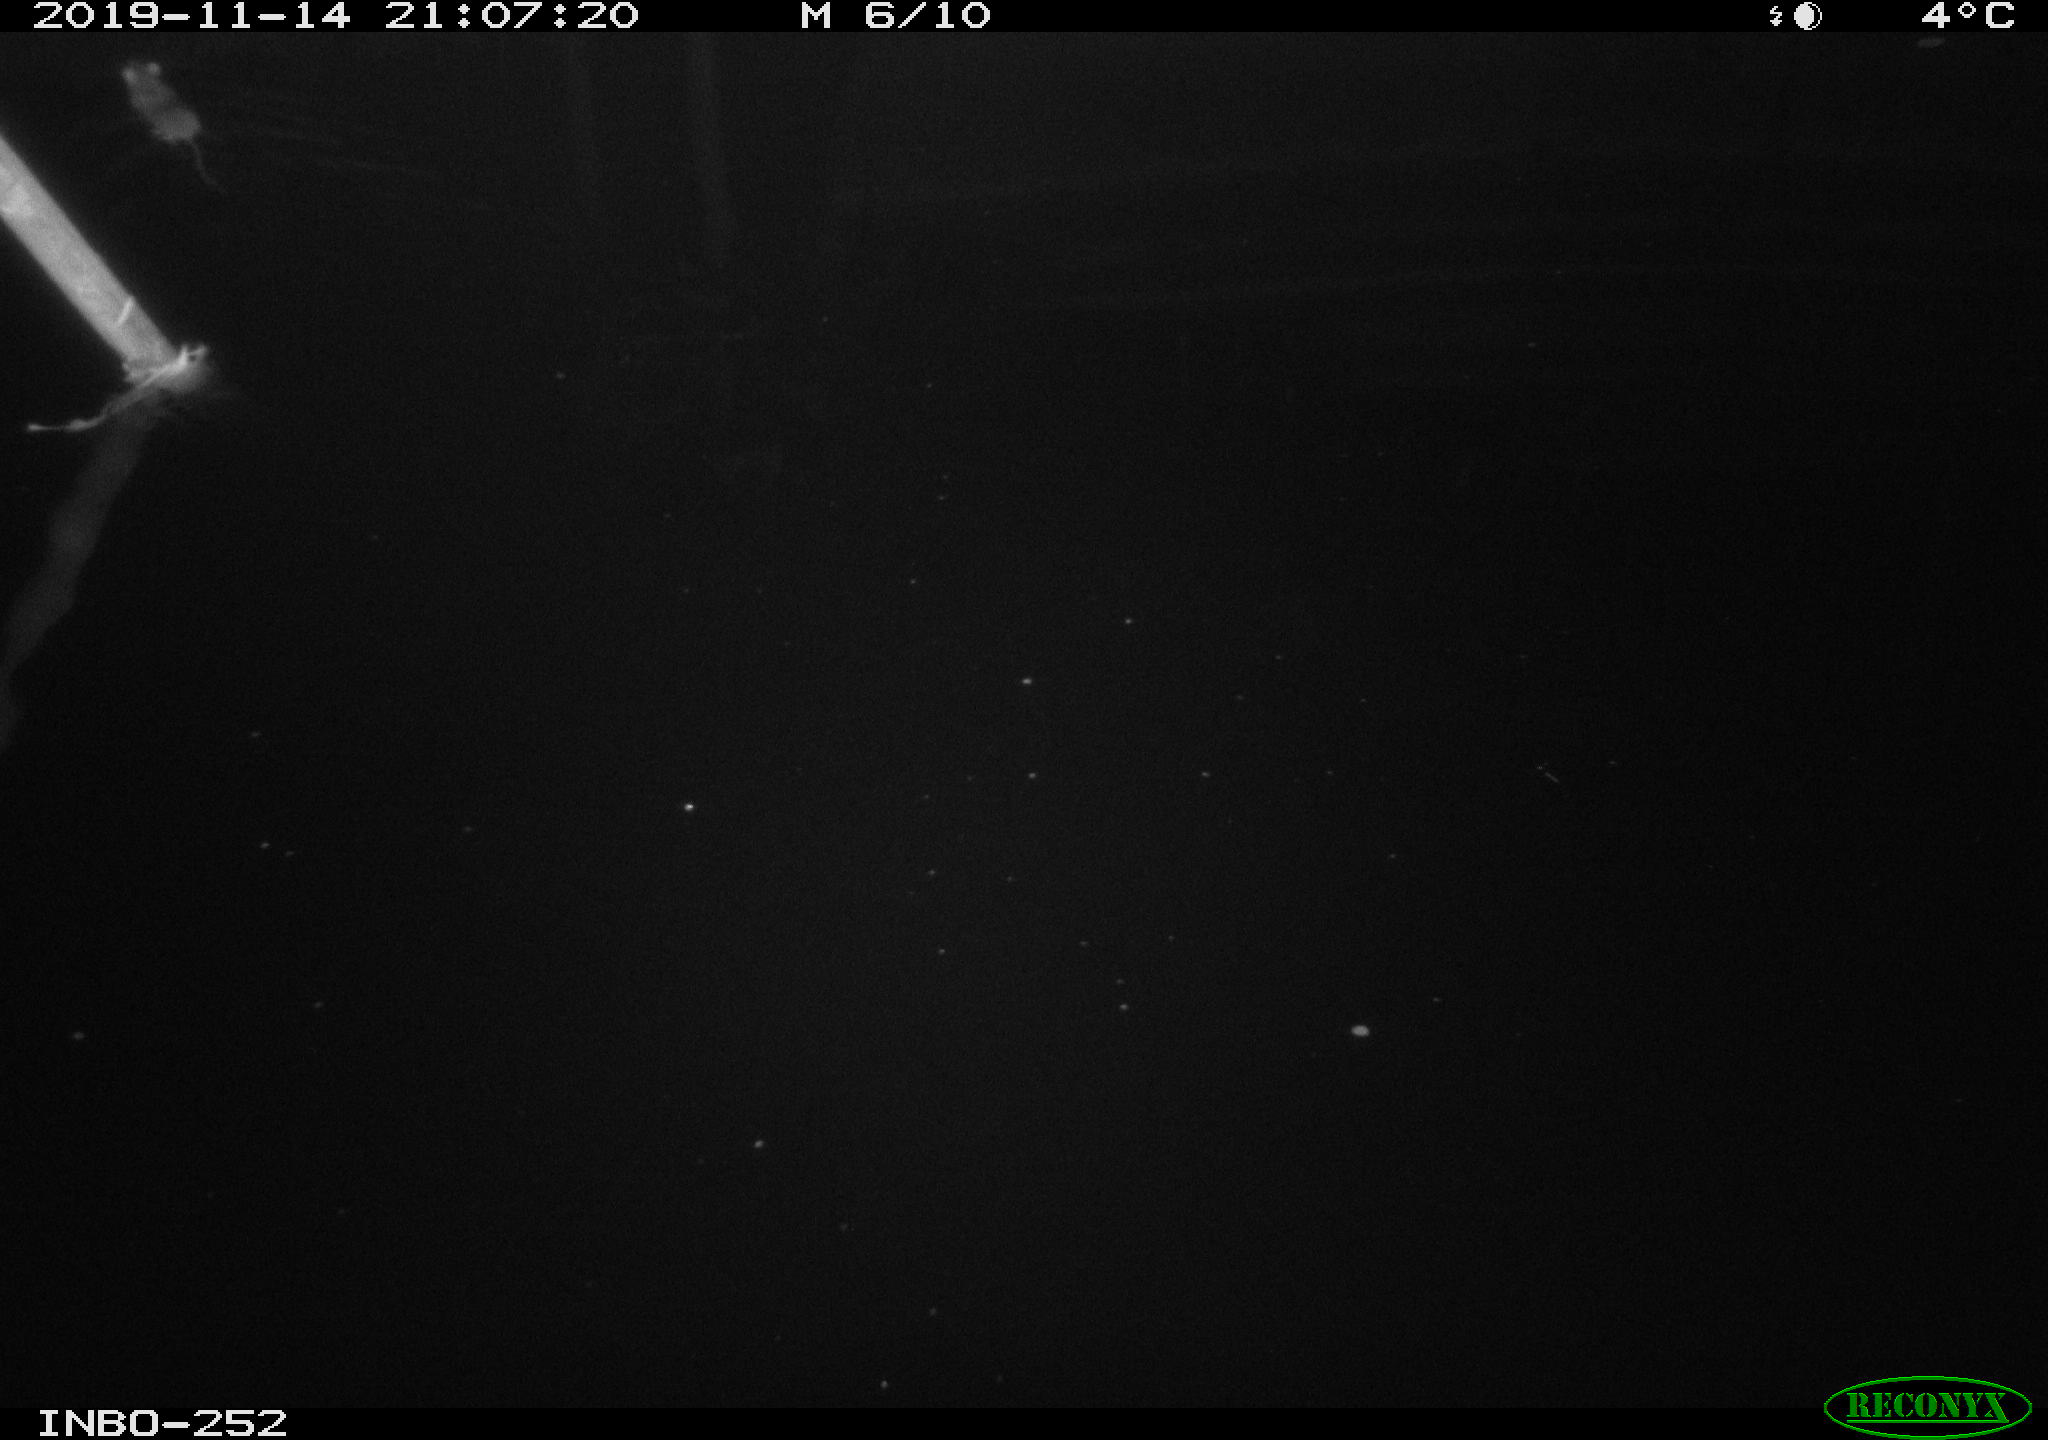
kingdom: Animalia
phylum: Chordata
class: Mammalia
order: Rodentia
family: Muridae
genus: Rattus
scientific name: Rattus norvegicus
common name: Brown rat
